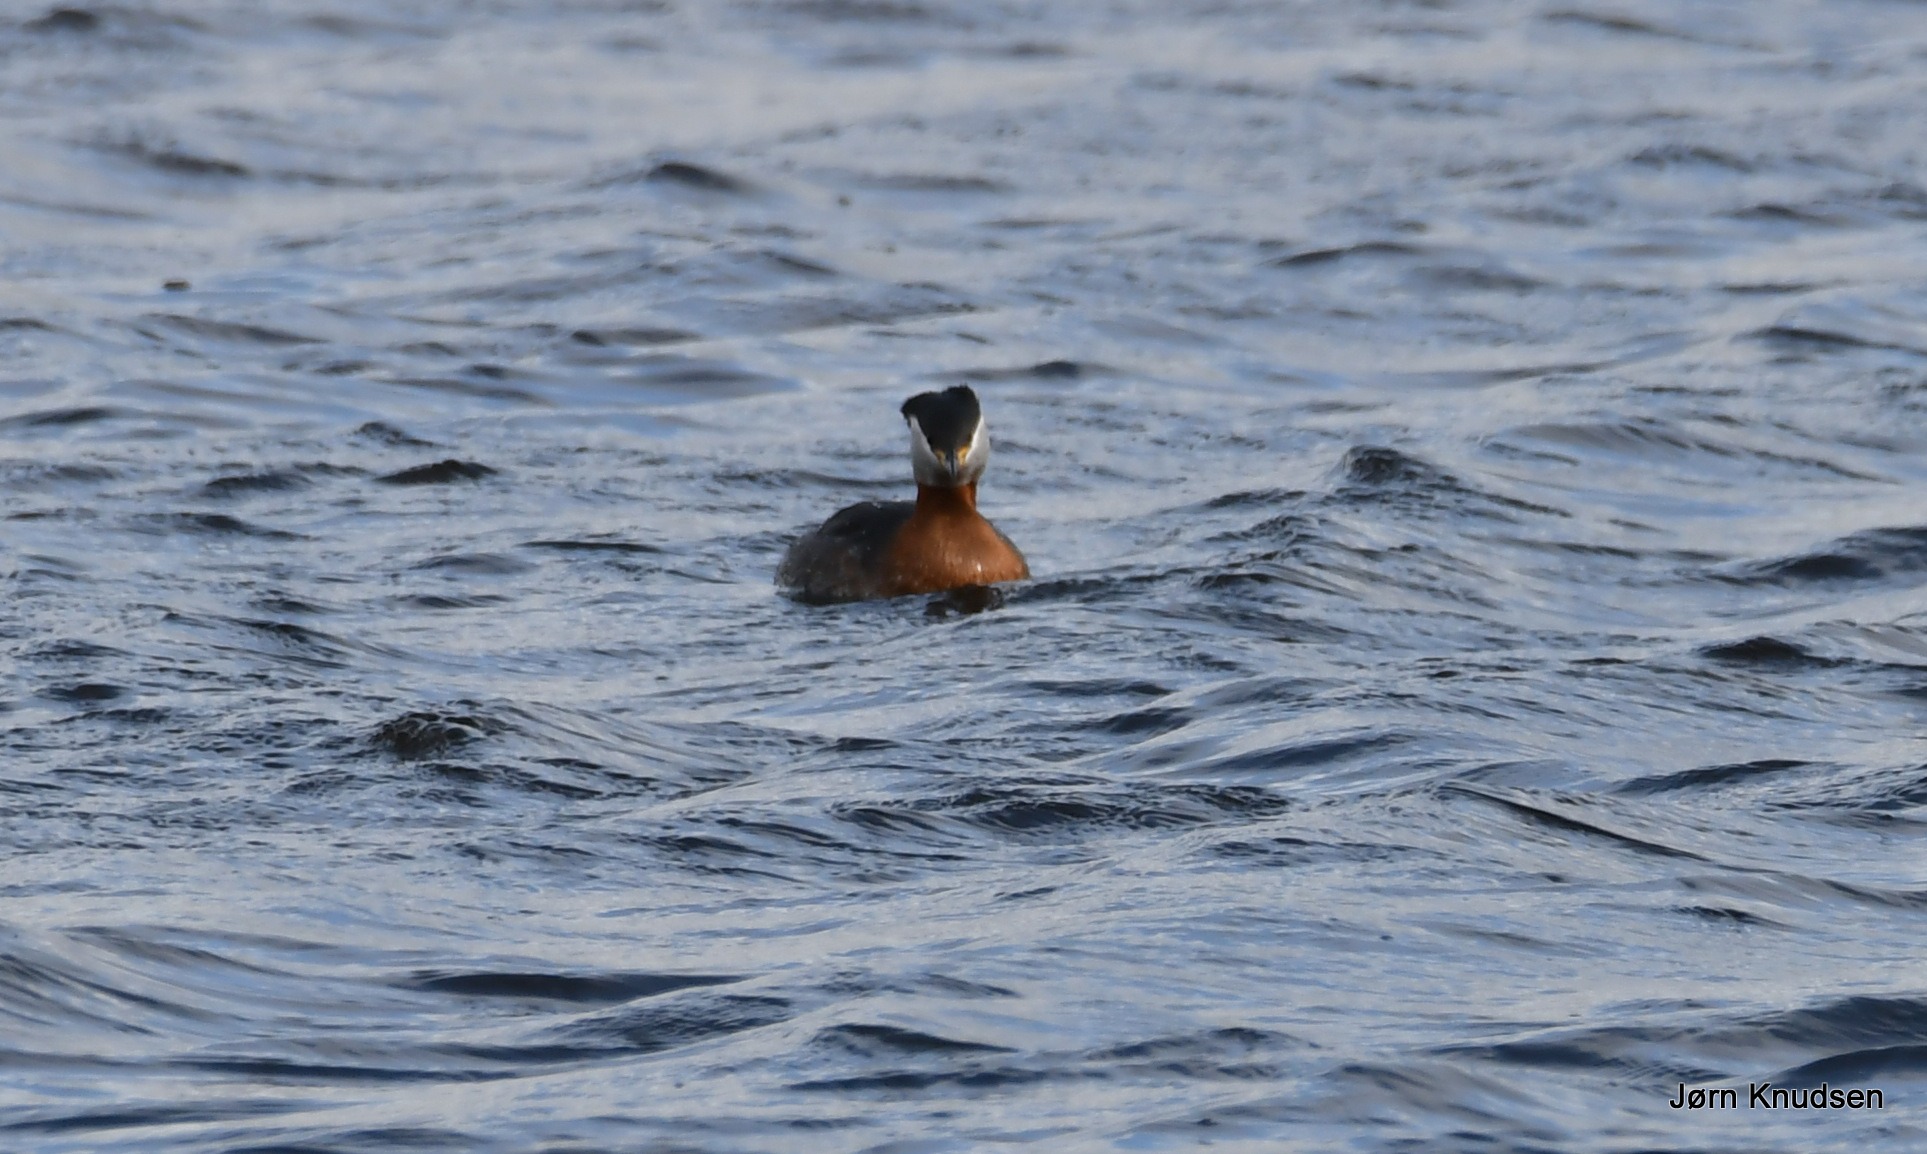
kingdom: Animalia
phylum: Chordata
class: Aves
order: Podicipediformes
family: Podicipedidae
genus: Podiceps
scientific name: Podiceps grisegena
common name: Gråstrubet lappedykker
